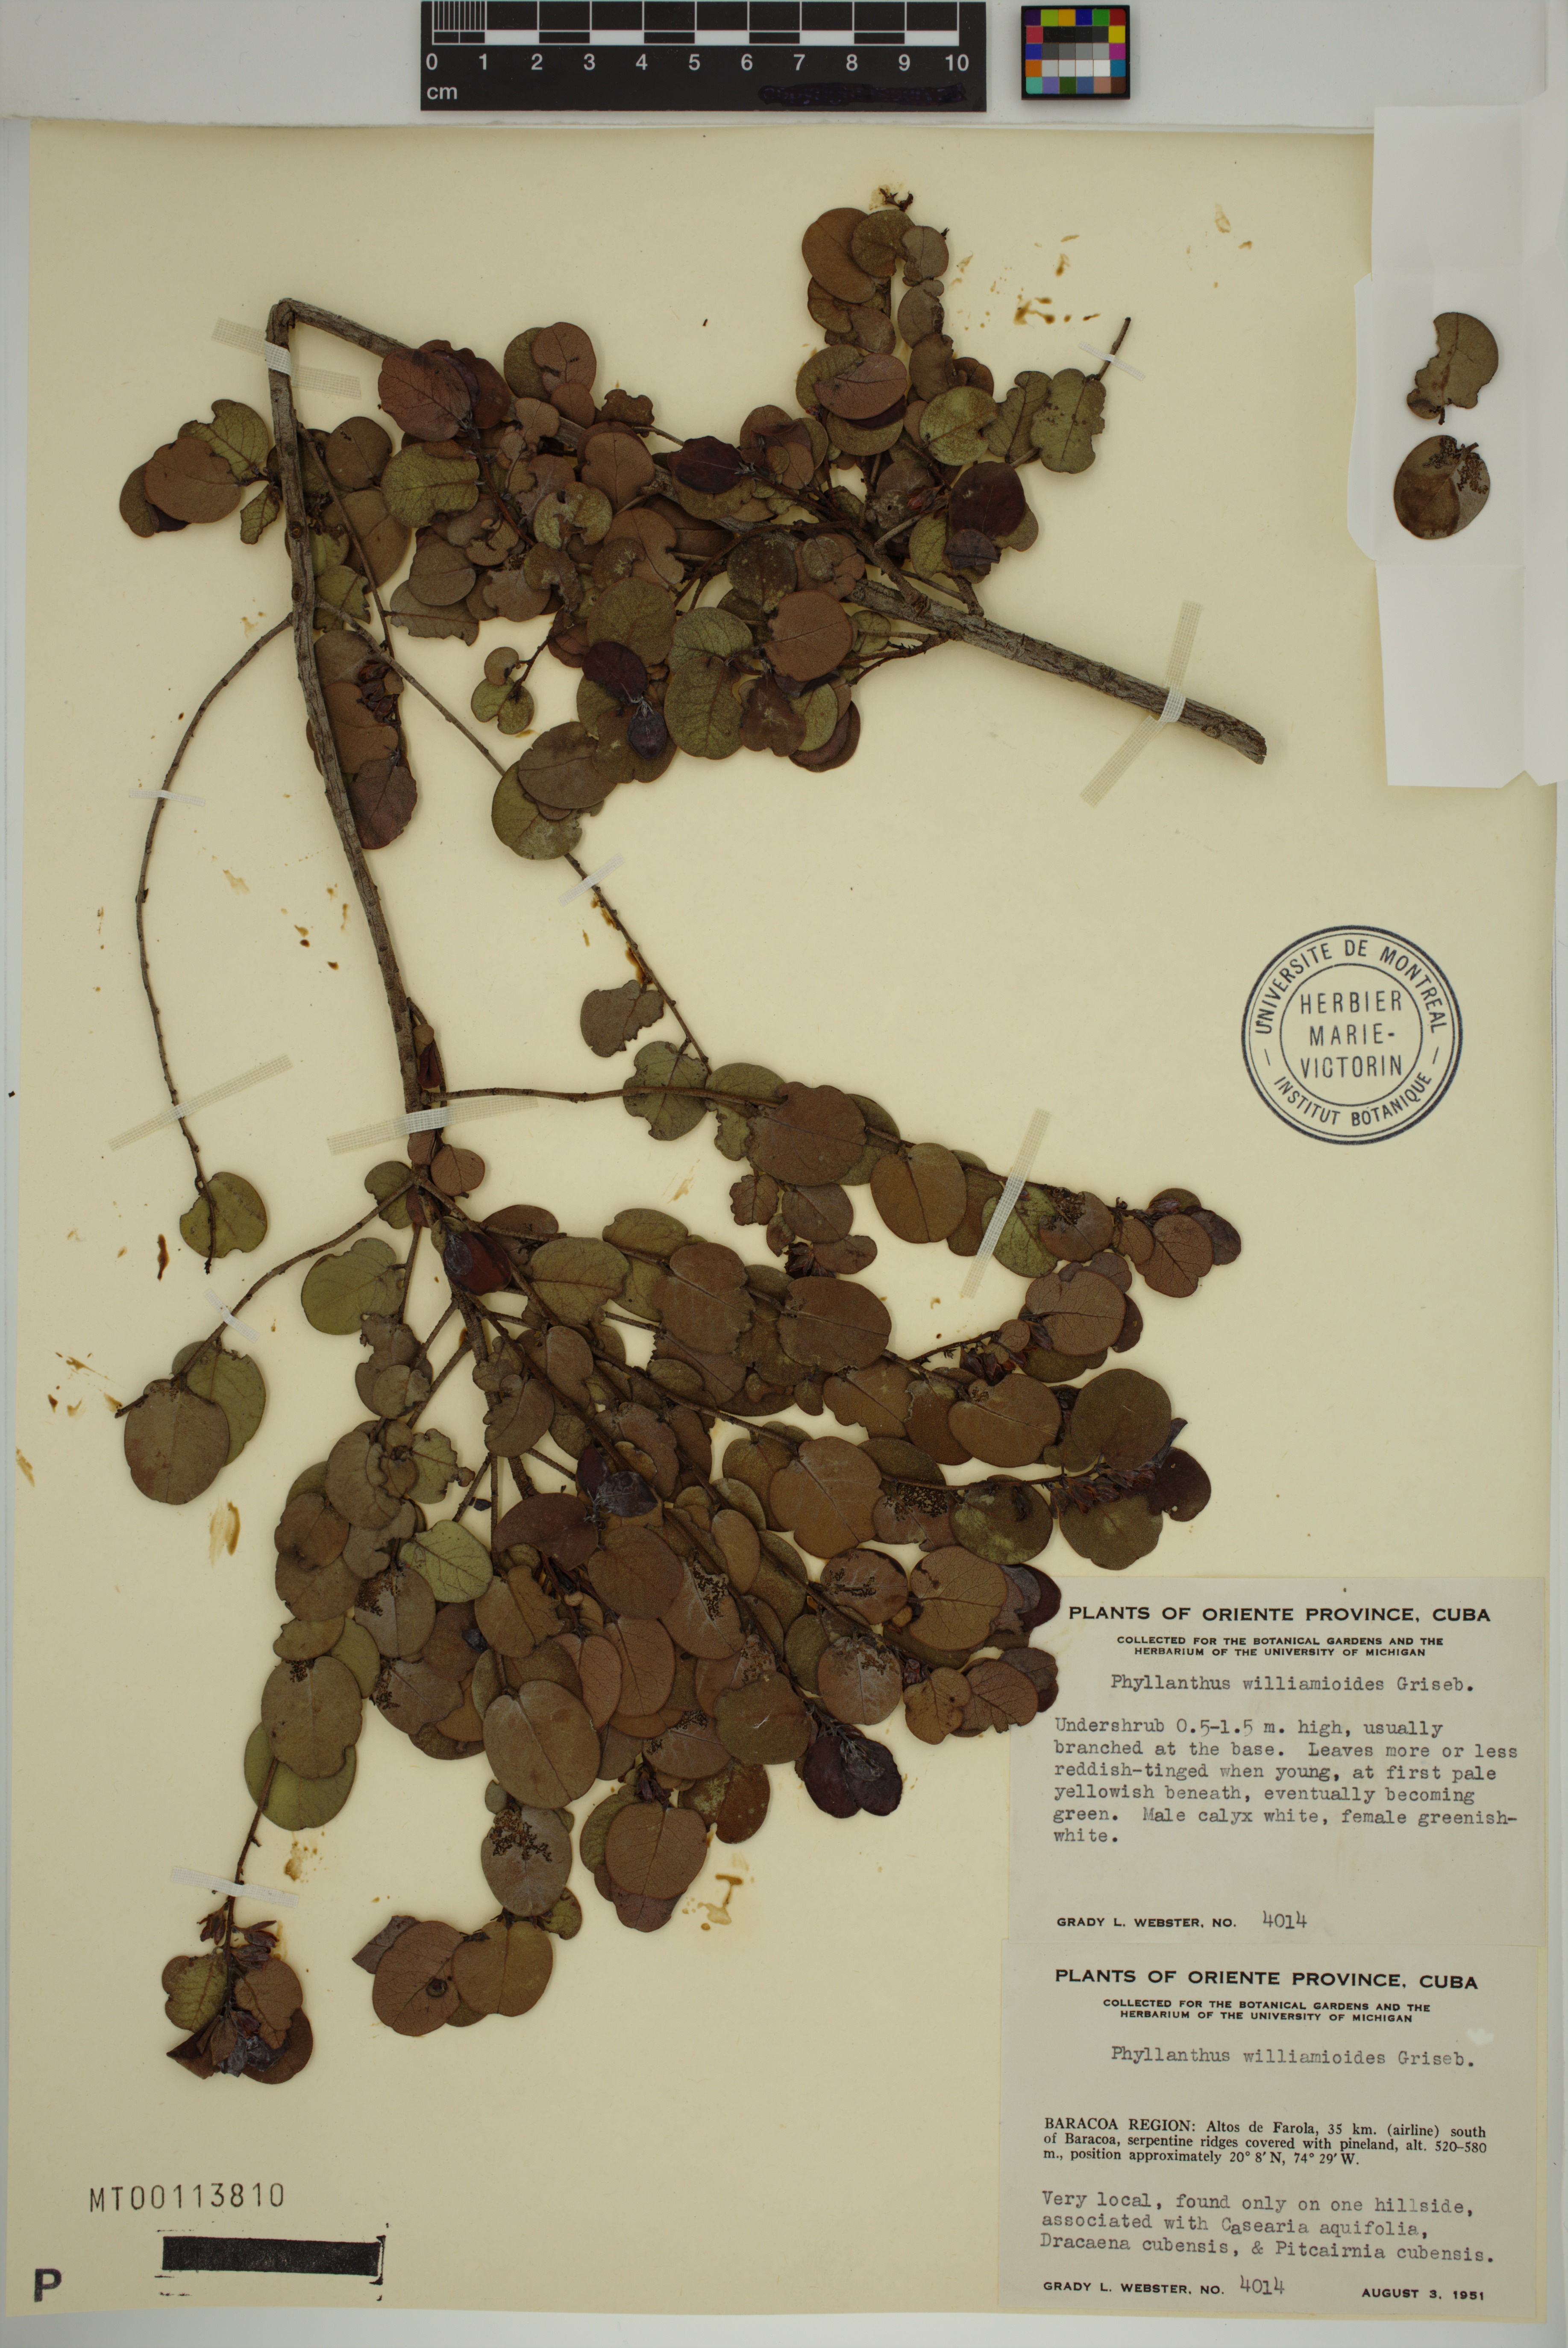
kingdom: Plantae
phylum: Tracheophyta
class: Magnoliopsida
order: Malpighiales
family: Phyllanthaceae
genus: Phyllanthus
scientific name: Phyllanthus williamioides
